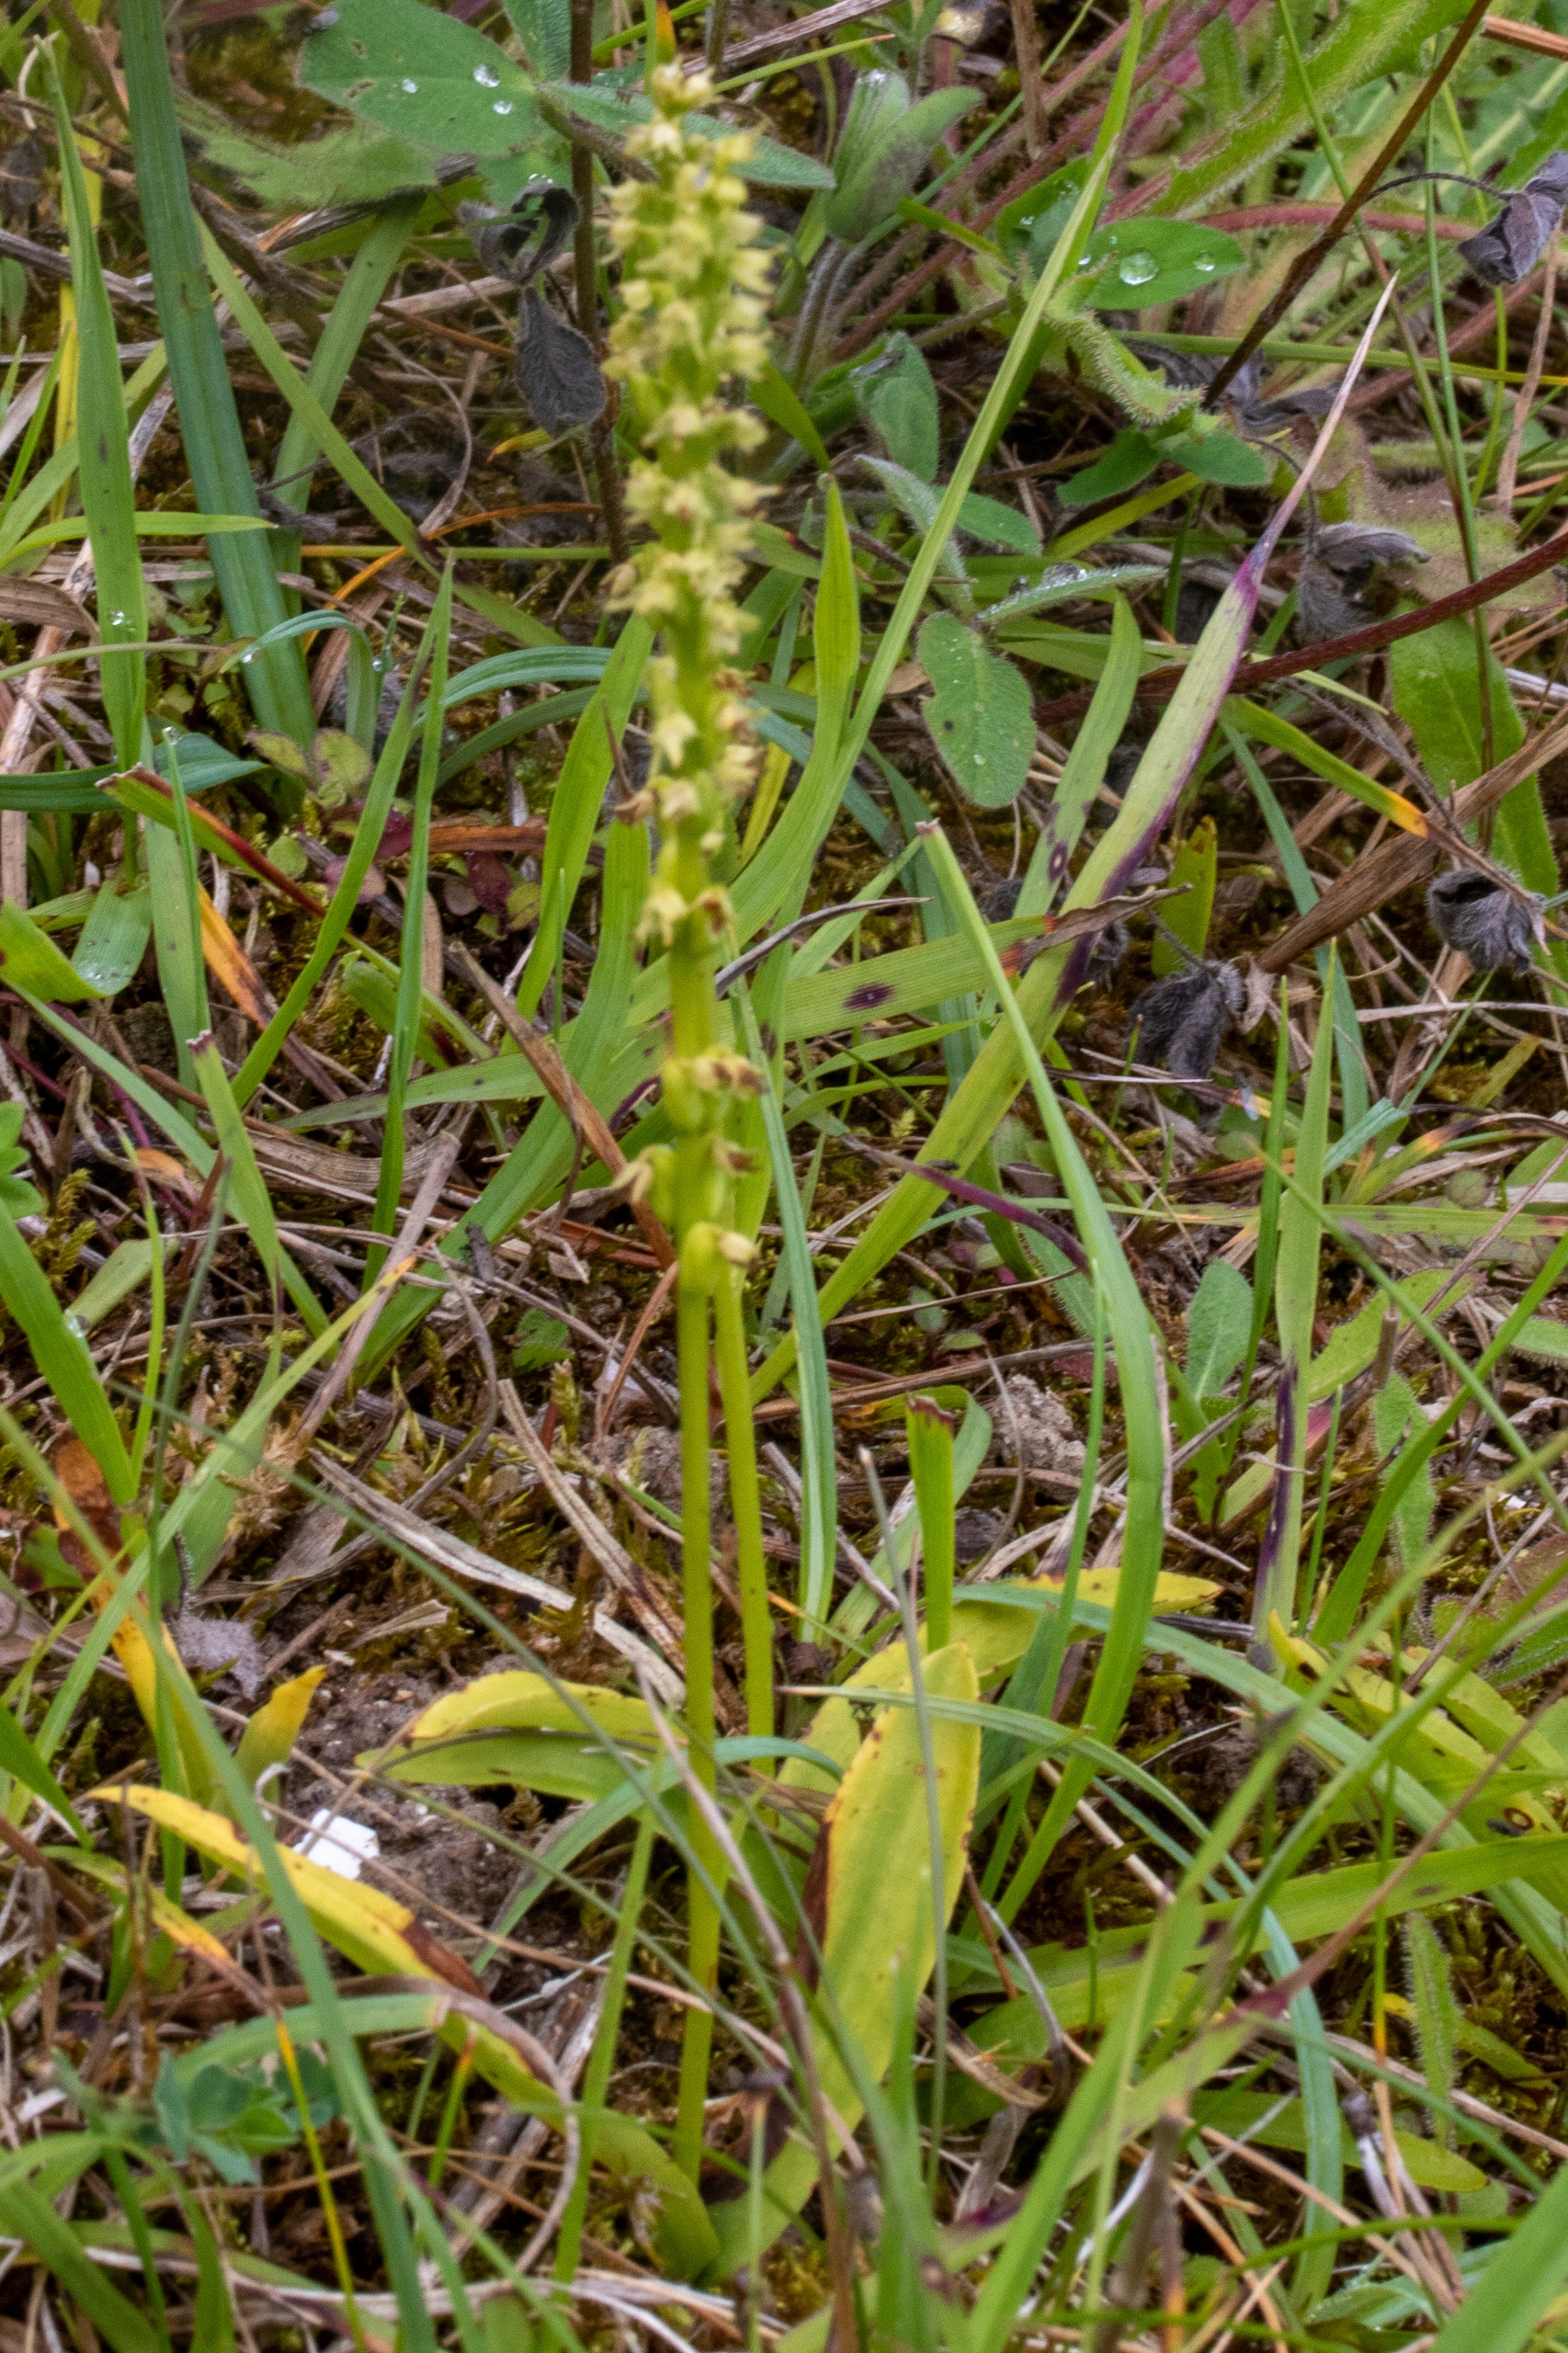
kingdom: Plantae
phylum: Tracheophyta
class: Liliopsida
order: Asparagales
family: Orchidaceae
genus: Herminium
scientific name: Herminium monorchis
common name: Pukkellæbe
